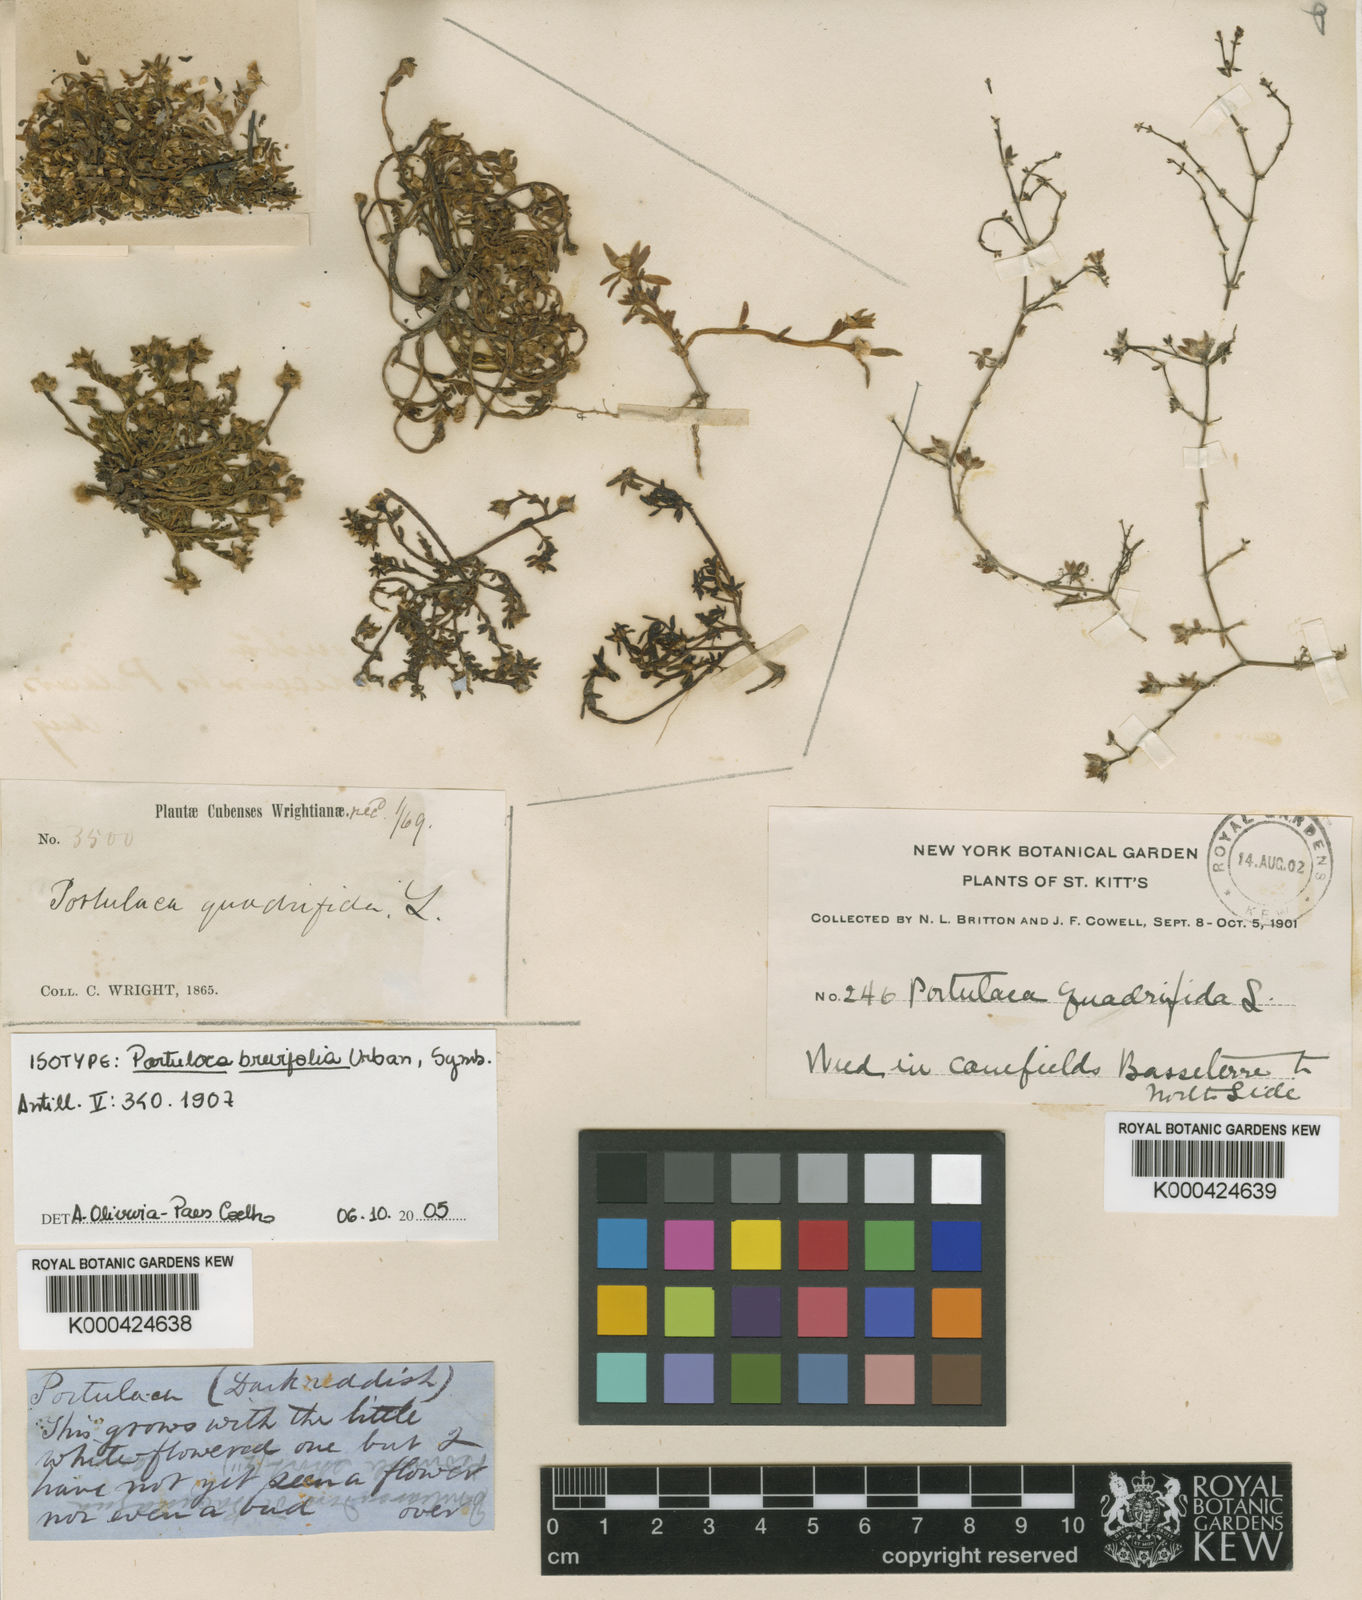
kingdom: Plantae
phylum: Tracheophyta
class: Magnoliopsida
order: Caryophyllales
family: Portulacaceae
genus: Portulaca
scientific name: Portulaca brevifolia
